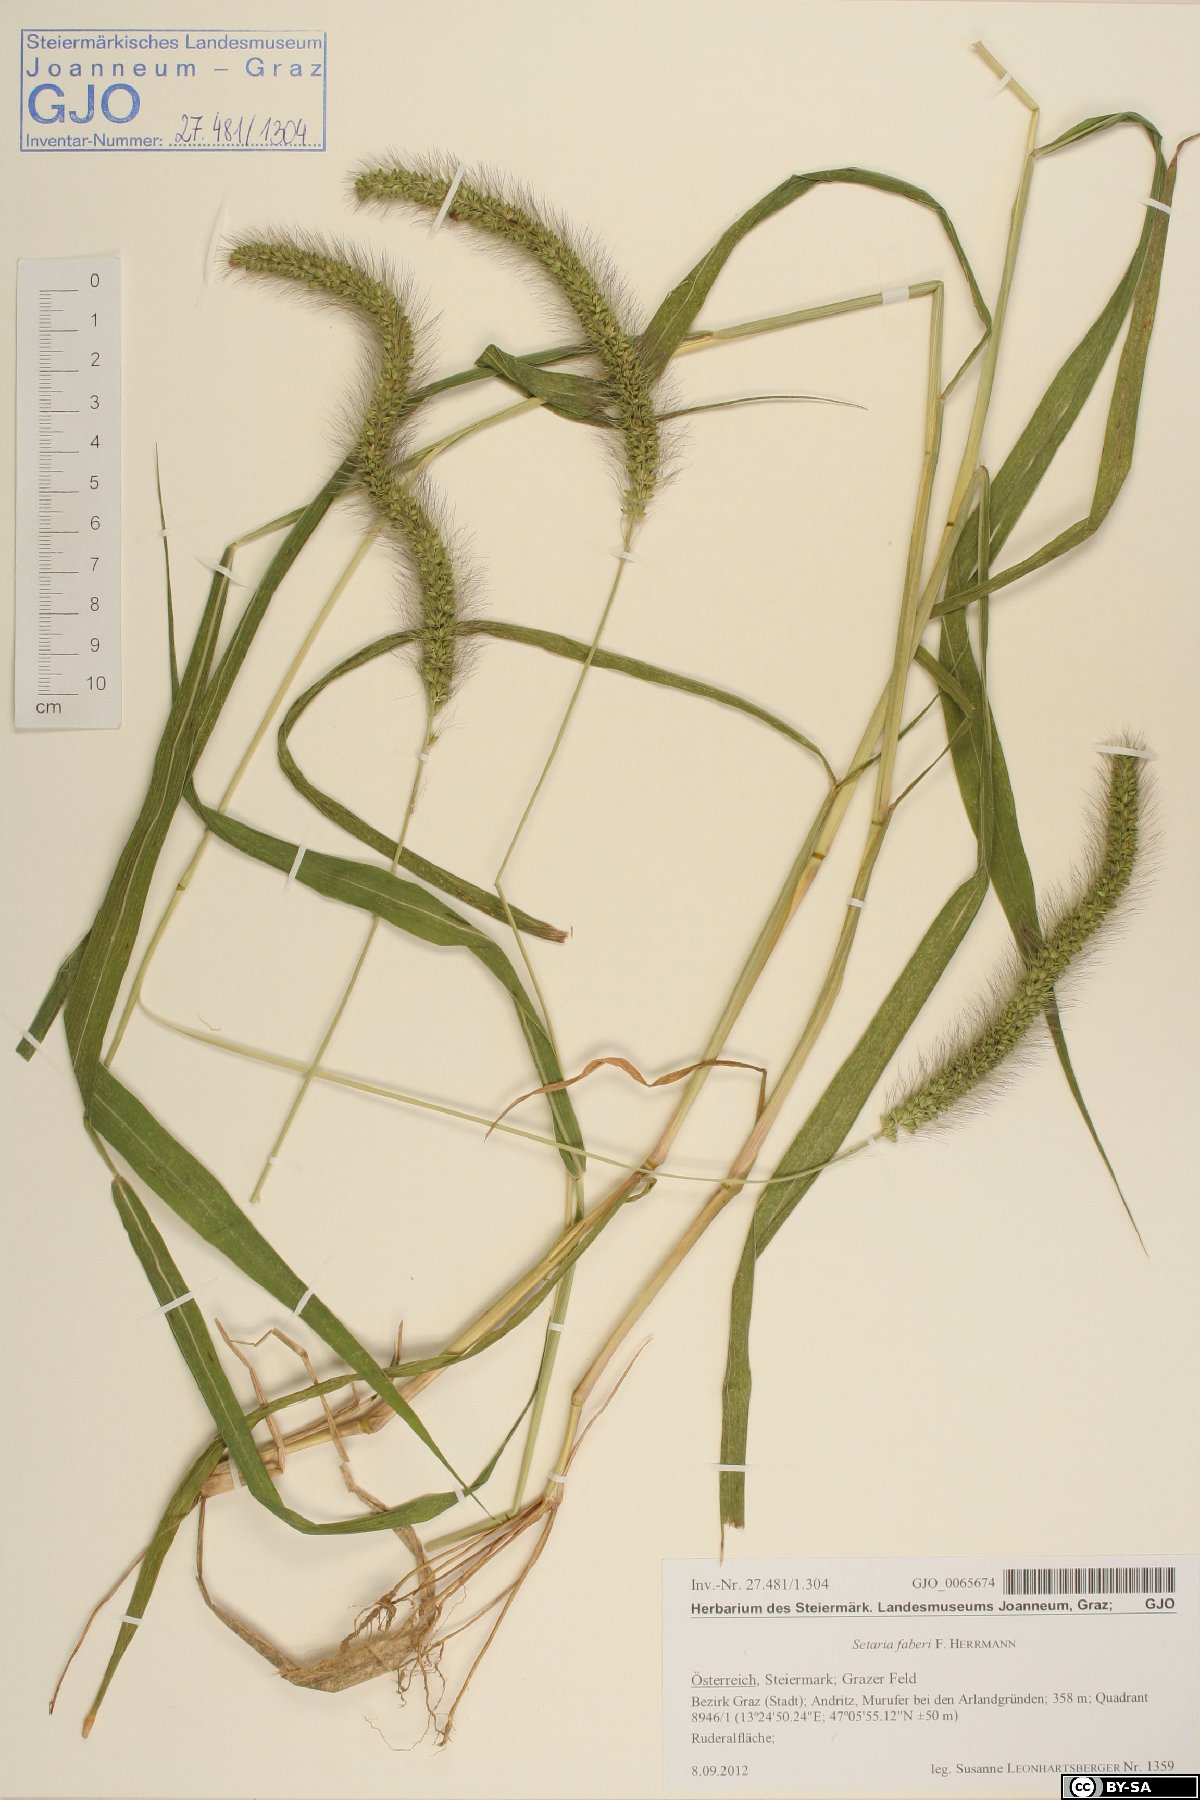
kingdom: Plantae
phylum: Tracheophyta
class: Liliopsida
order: Poales
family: Poaceae
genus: Setaria
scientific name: Setaria faberi
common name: Nodding bristle-grass
